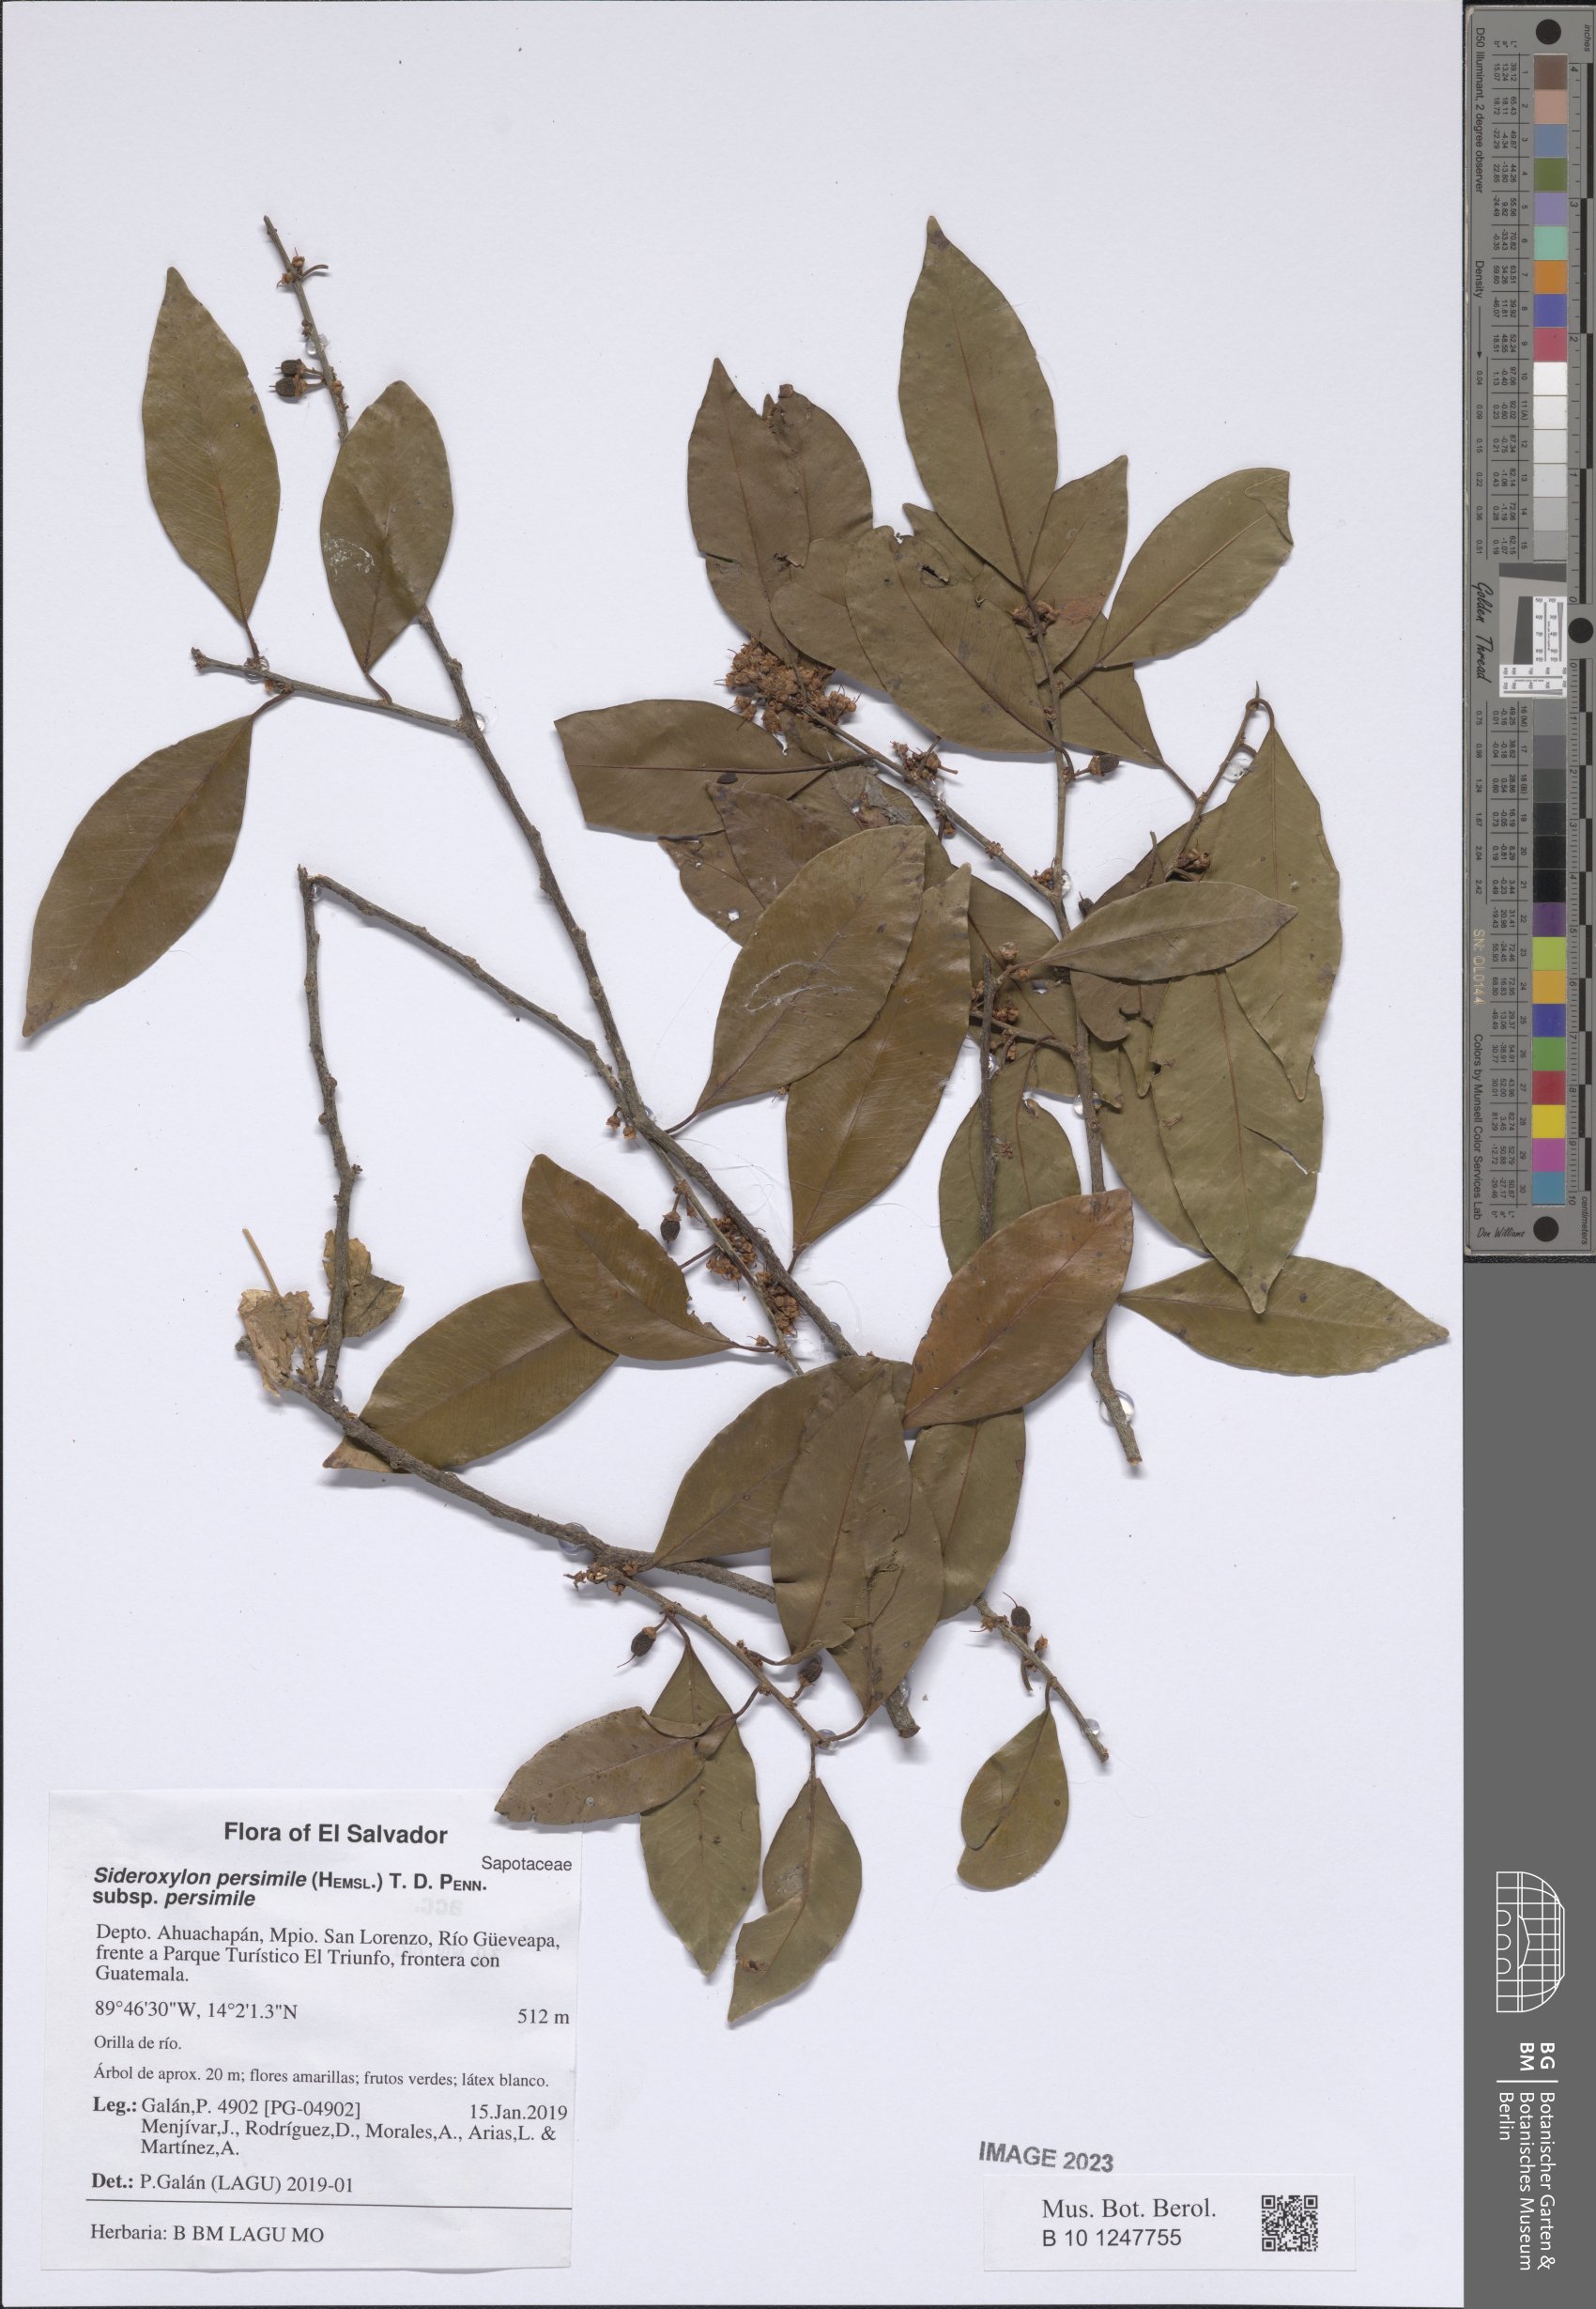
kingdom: Plantae
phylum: Tracheophyta
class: Magnoliopsida
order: Ericales
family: Sapotaceae
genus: Sideroxylon
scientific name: Sideroxylon persimile
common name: Bumelia
